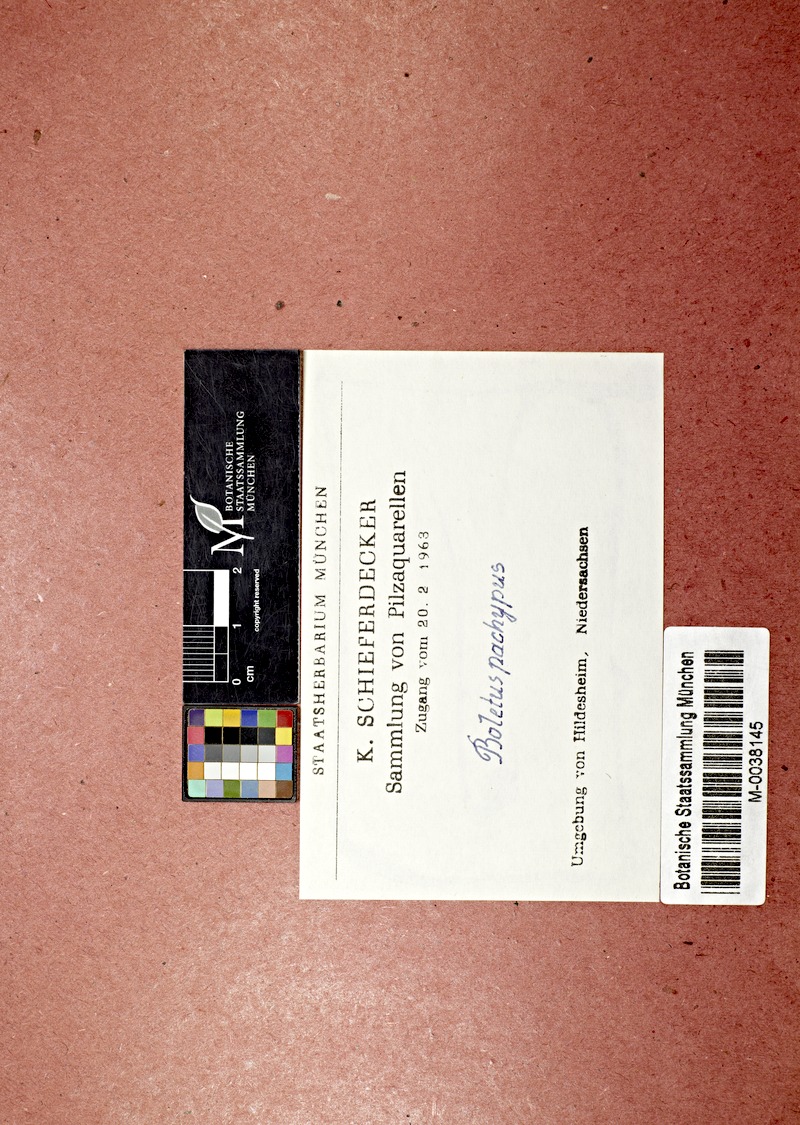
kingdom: Fungi
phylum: Basidiomycota
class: Agaricomycetes
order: Boletales
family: Boletaceae
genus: Caloboletus
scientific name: Caloboletus radicans
